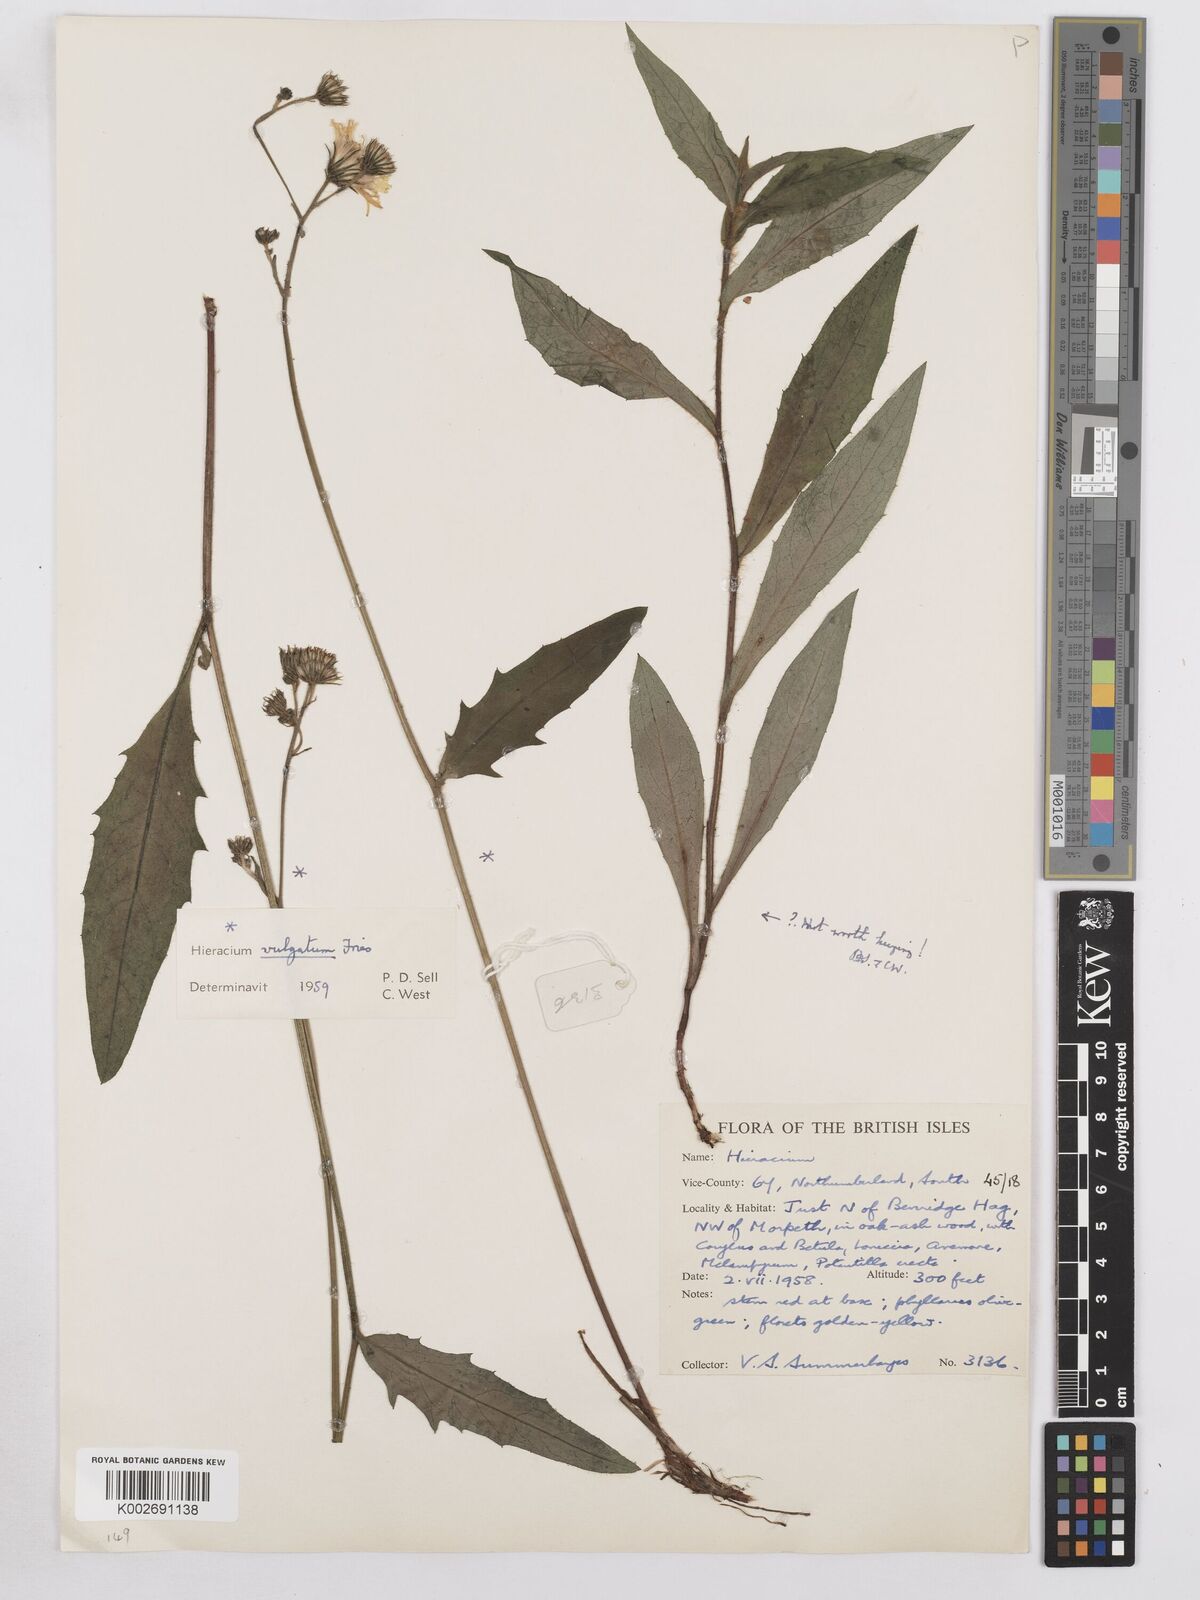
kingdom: Plantae
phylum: Tracheophyta
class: Magnoliopsida
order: Asterales
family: Asteraceae
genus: Hieracium
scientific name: Hieracium lachenalii
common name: Common hawkweed
